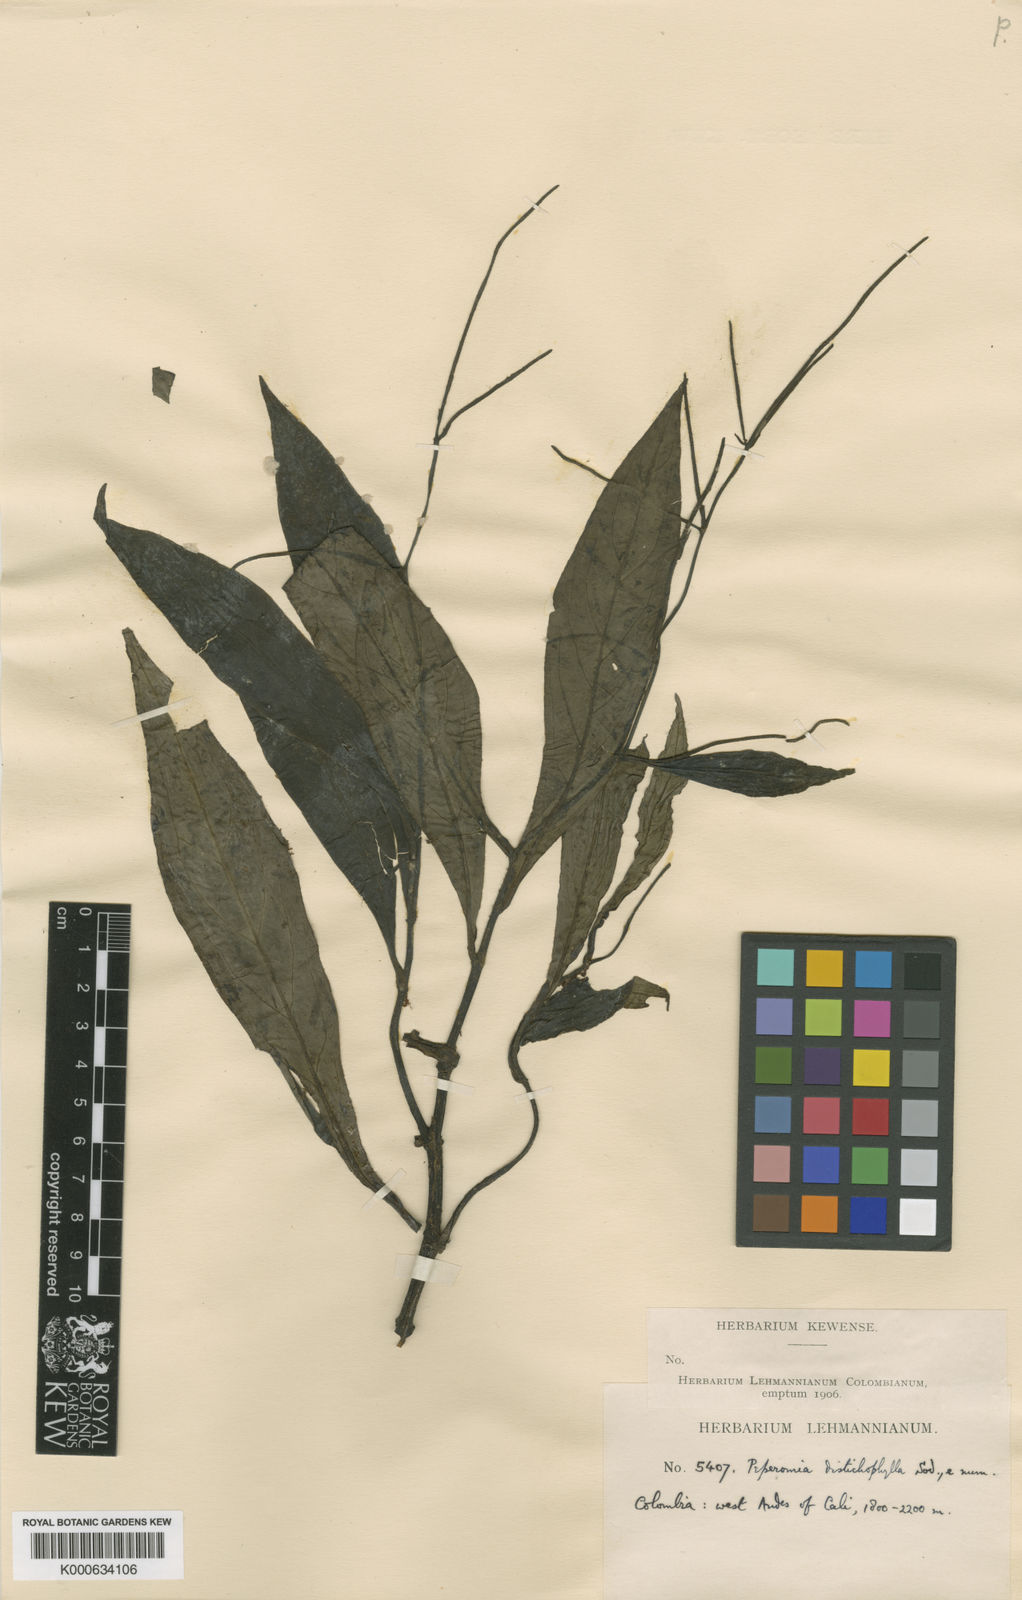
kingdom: Plantae
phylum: Tracheophyta
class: Magnoliopsida
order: Piperales
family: Piperaceae
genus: Peperomia
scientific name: Peperomia lancifolia
